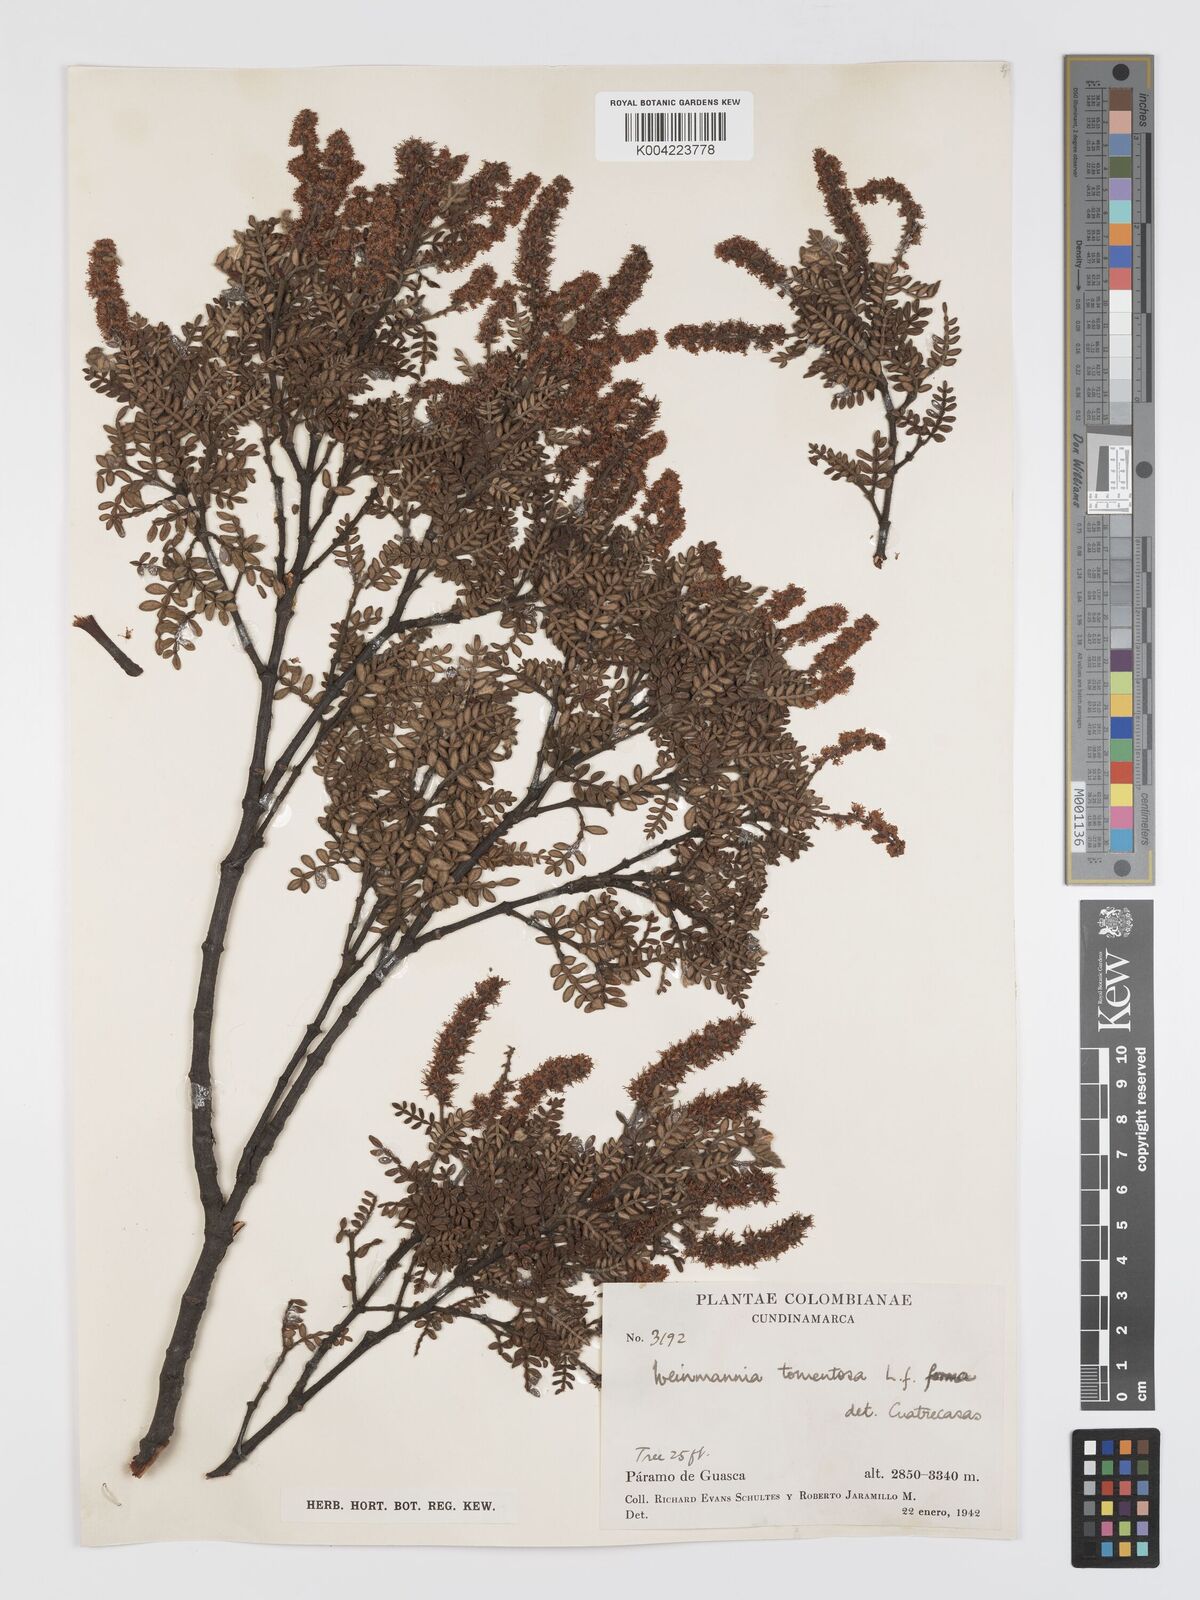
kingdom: Plantae
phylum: Tracheophyta
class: Magnoliopsida
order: Oxalidales
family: Cunoniaceae
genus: Weinmannia
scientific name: Weinmannia tomentosa
